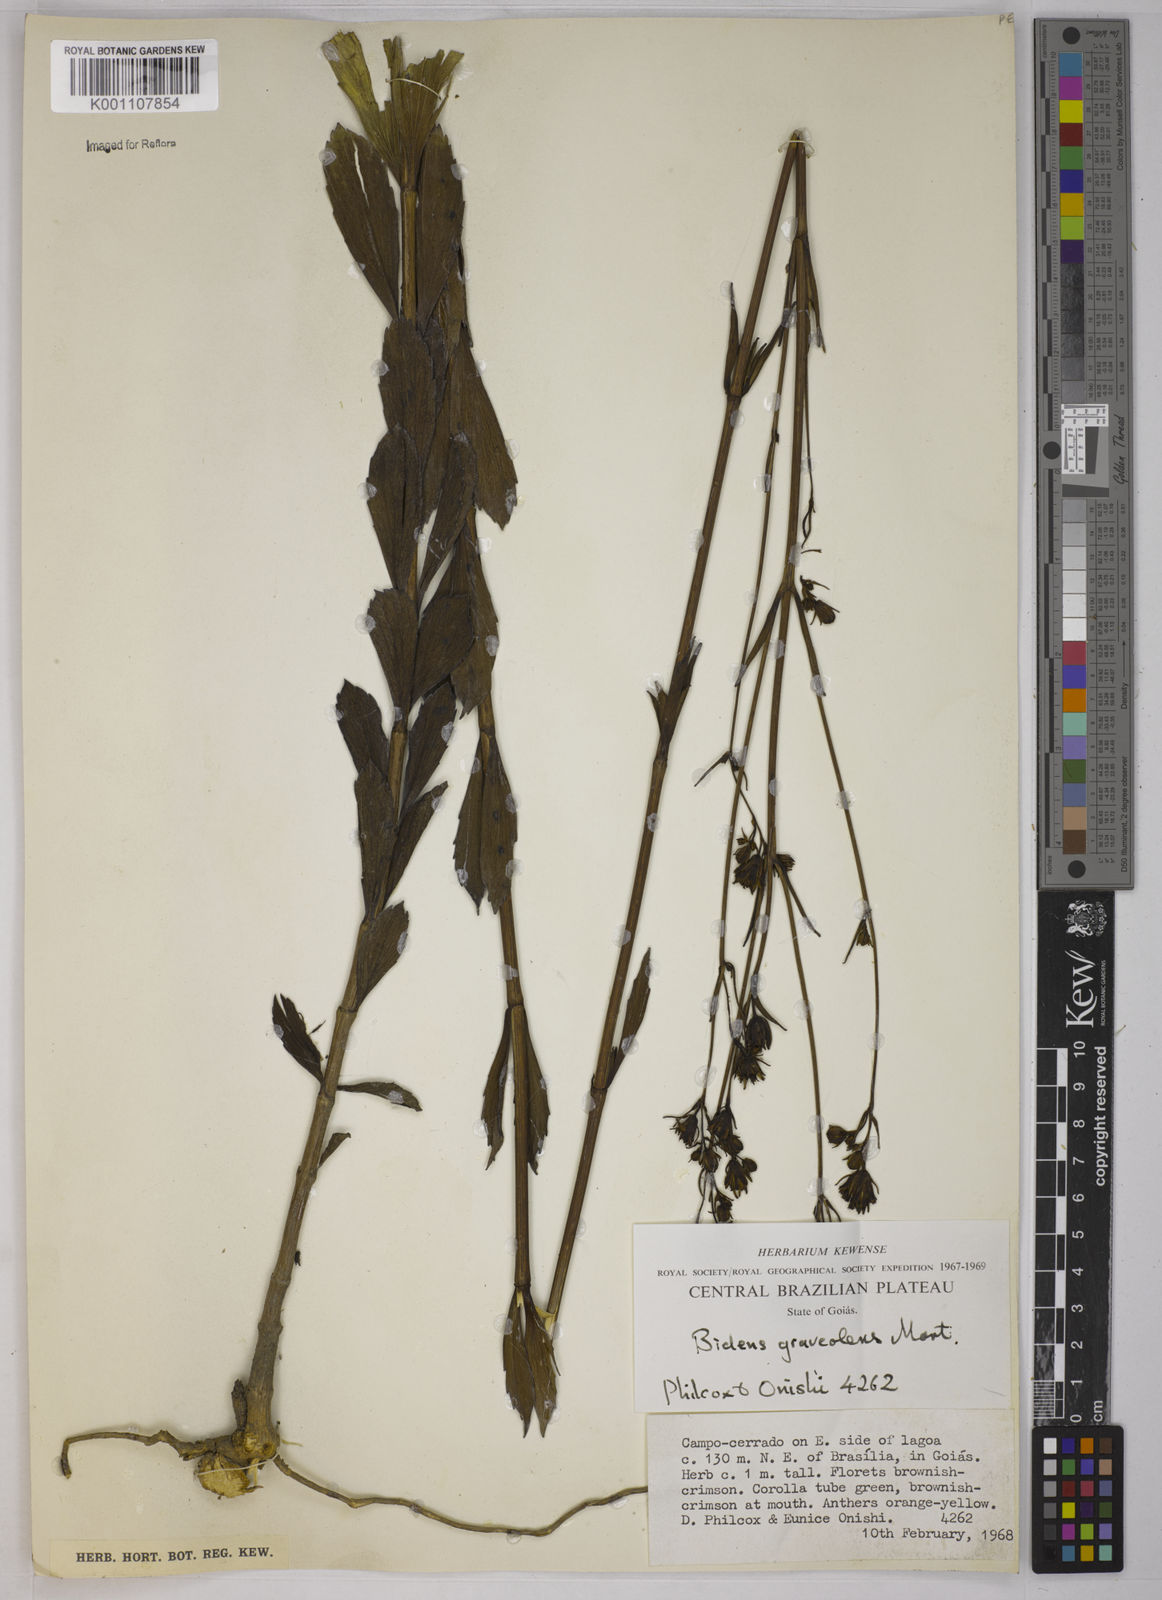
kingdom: Plantae
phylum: Tracheophyta
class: Magnoliopsida
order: Asterales
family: Asteraceae
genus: Bidens
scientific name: Bidens graveolens
